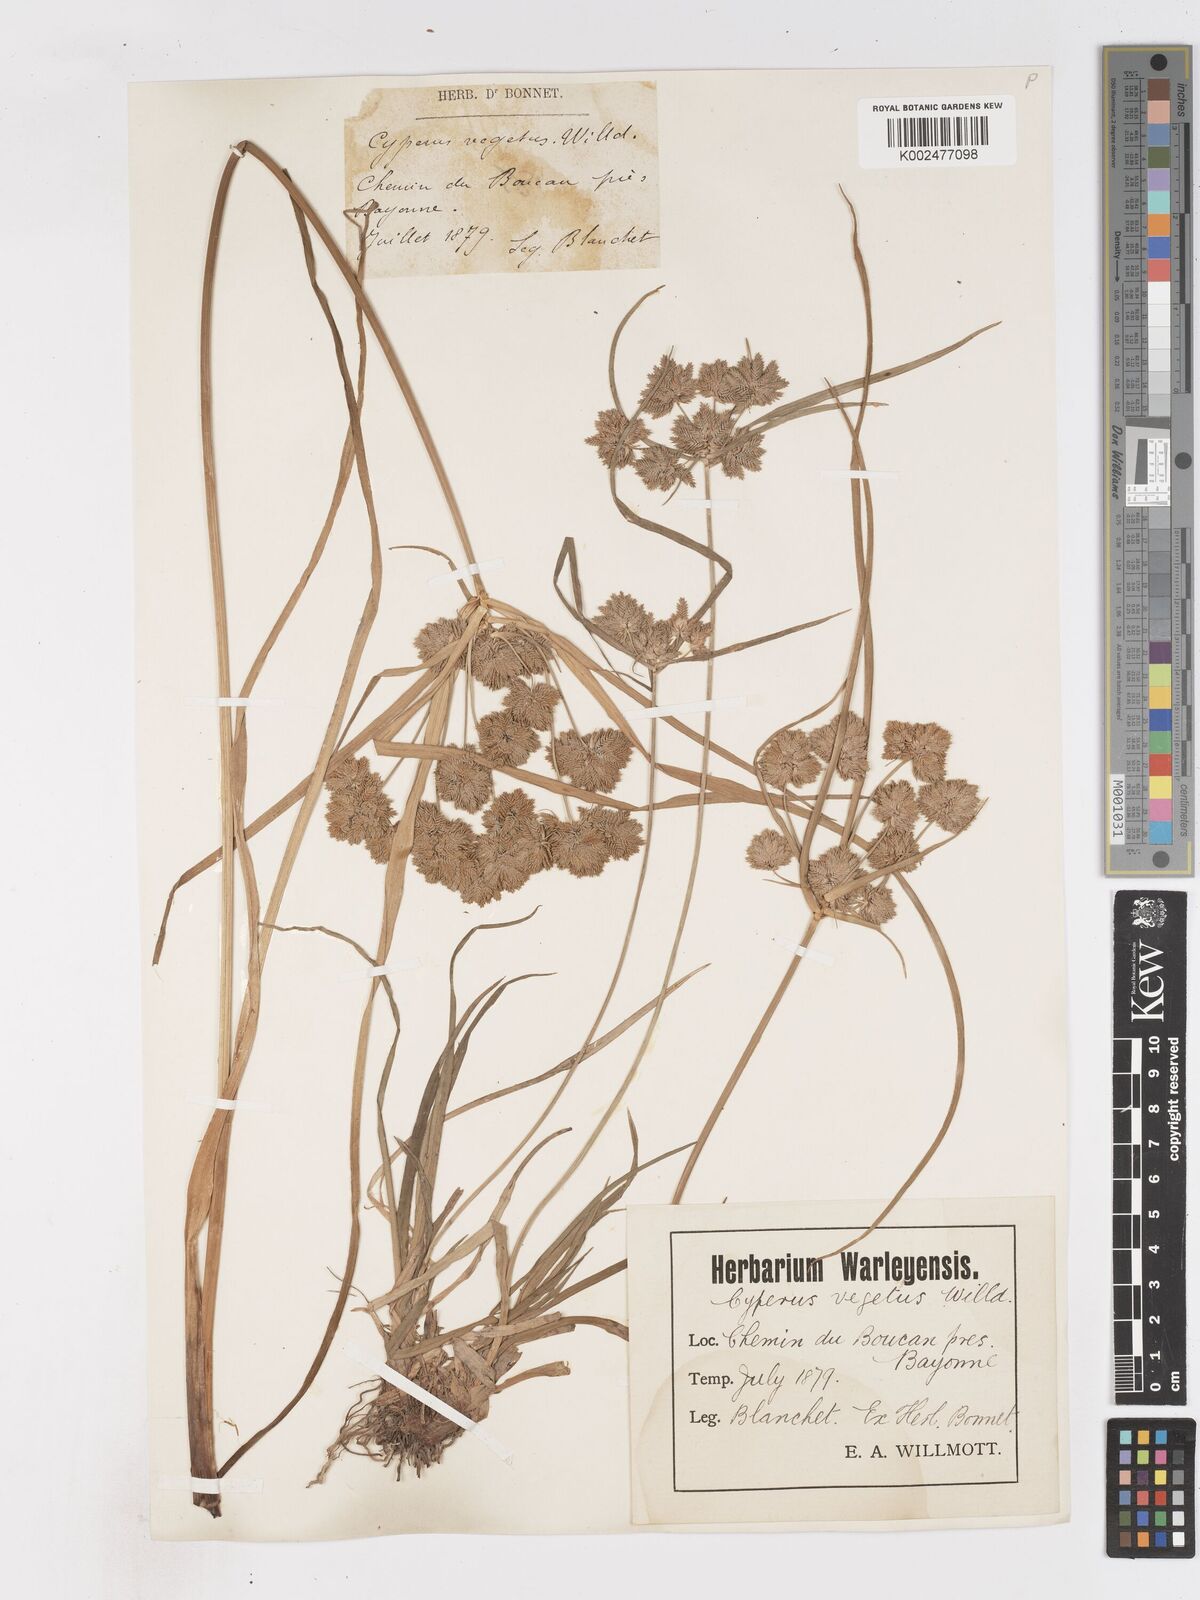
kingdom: Plantae
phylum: Tracheophyta
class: Liliopsida
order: Poales
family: Cyperaceae
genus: Cyperus
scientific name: Cyperus eragrostis
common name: Tall flatsedge
